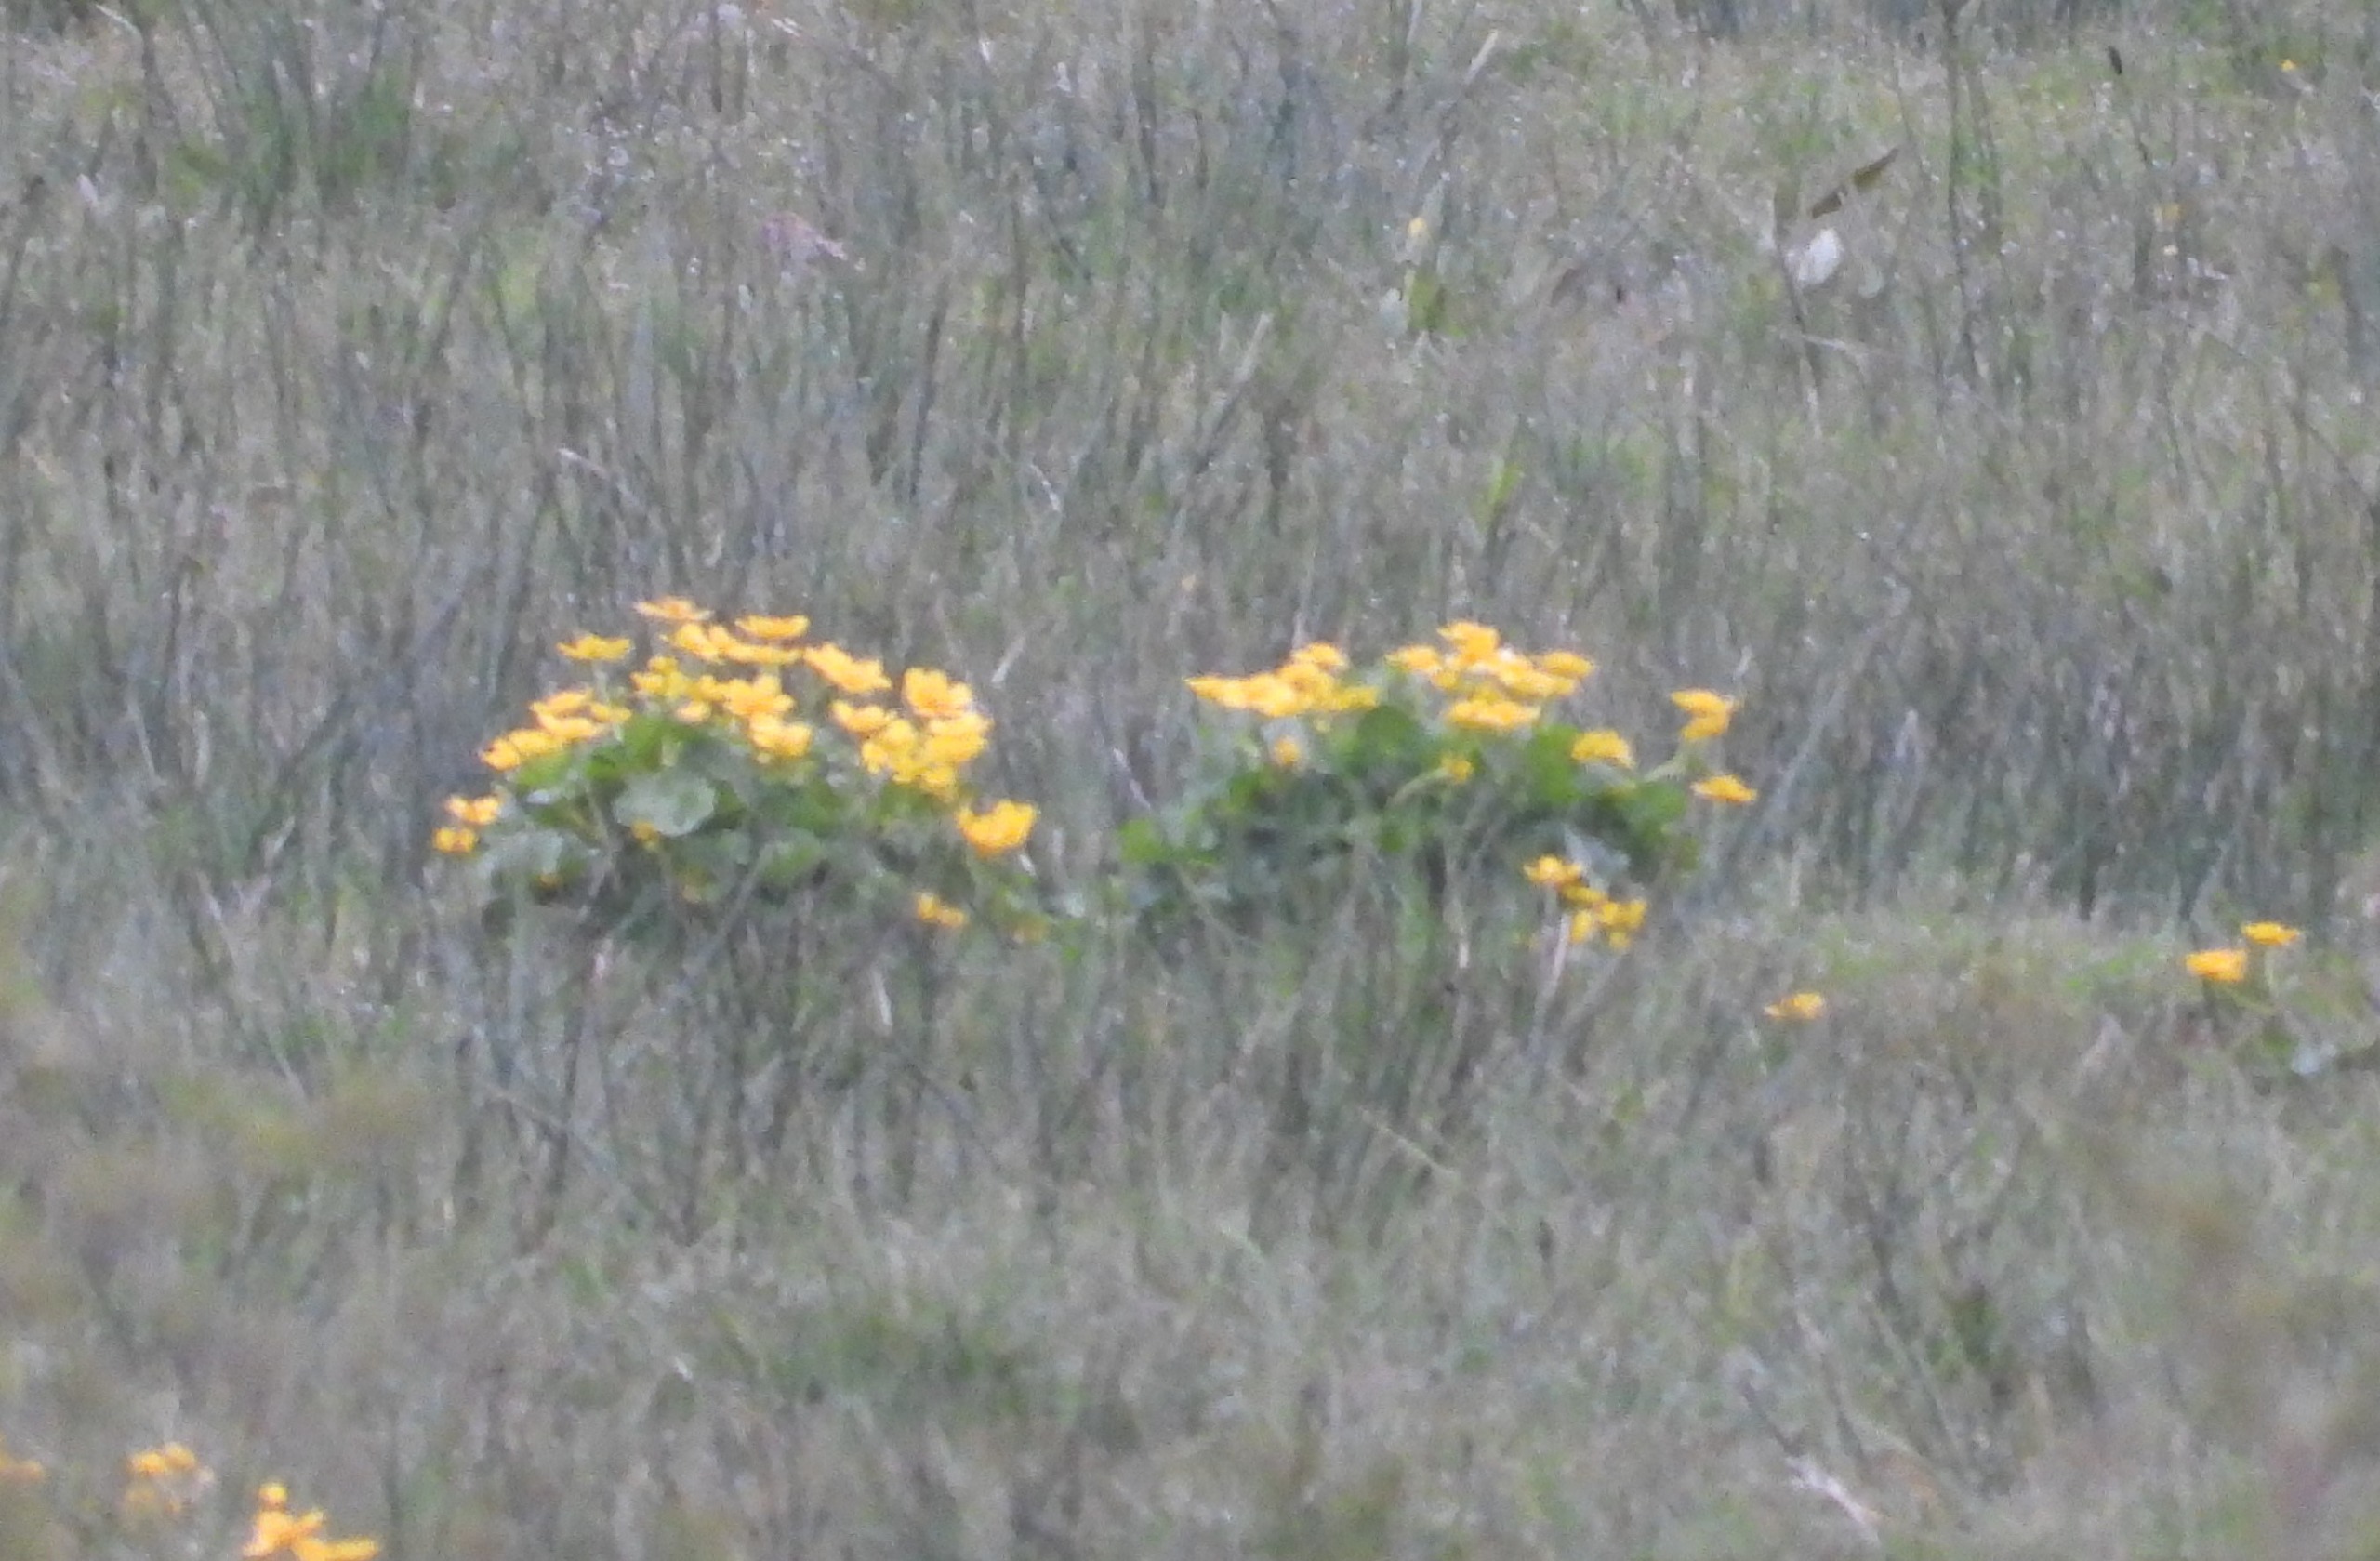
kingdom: Plantae
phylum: Tracheophyta
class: Magnoliopsida
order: Ranunculales
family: Ranunculaceae
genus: Caltha
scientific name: Caltha palustris
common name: Eng-kabbeleje
